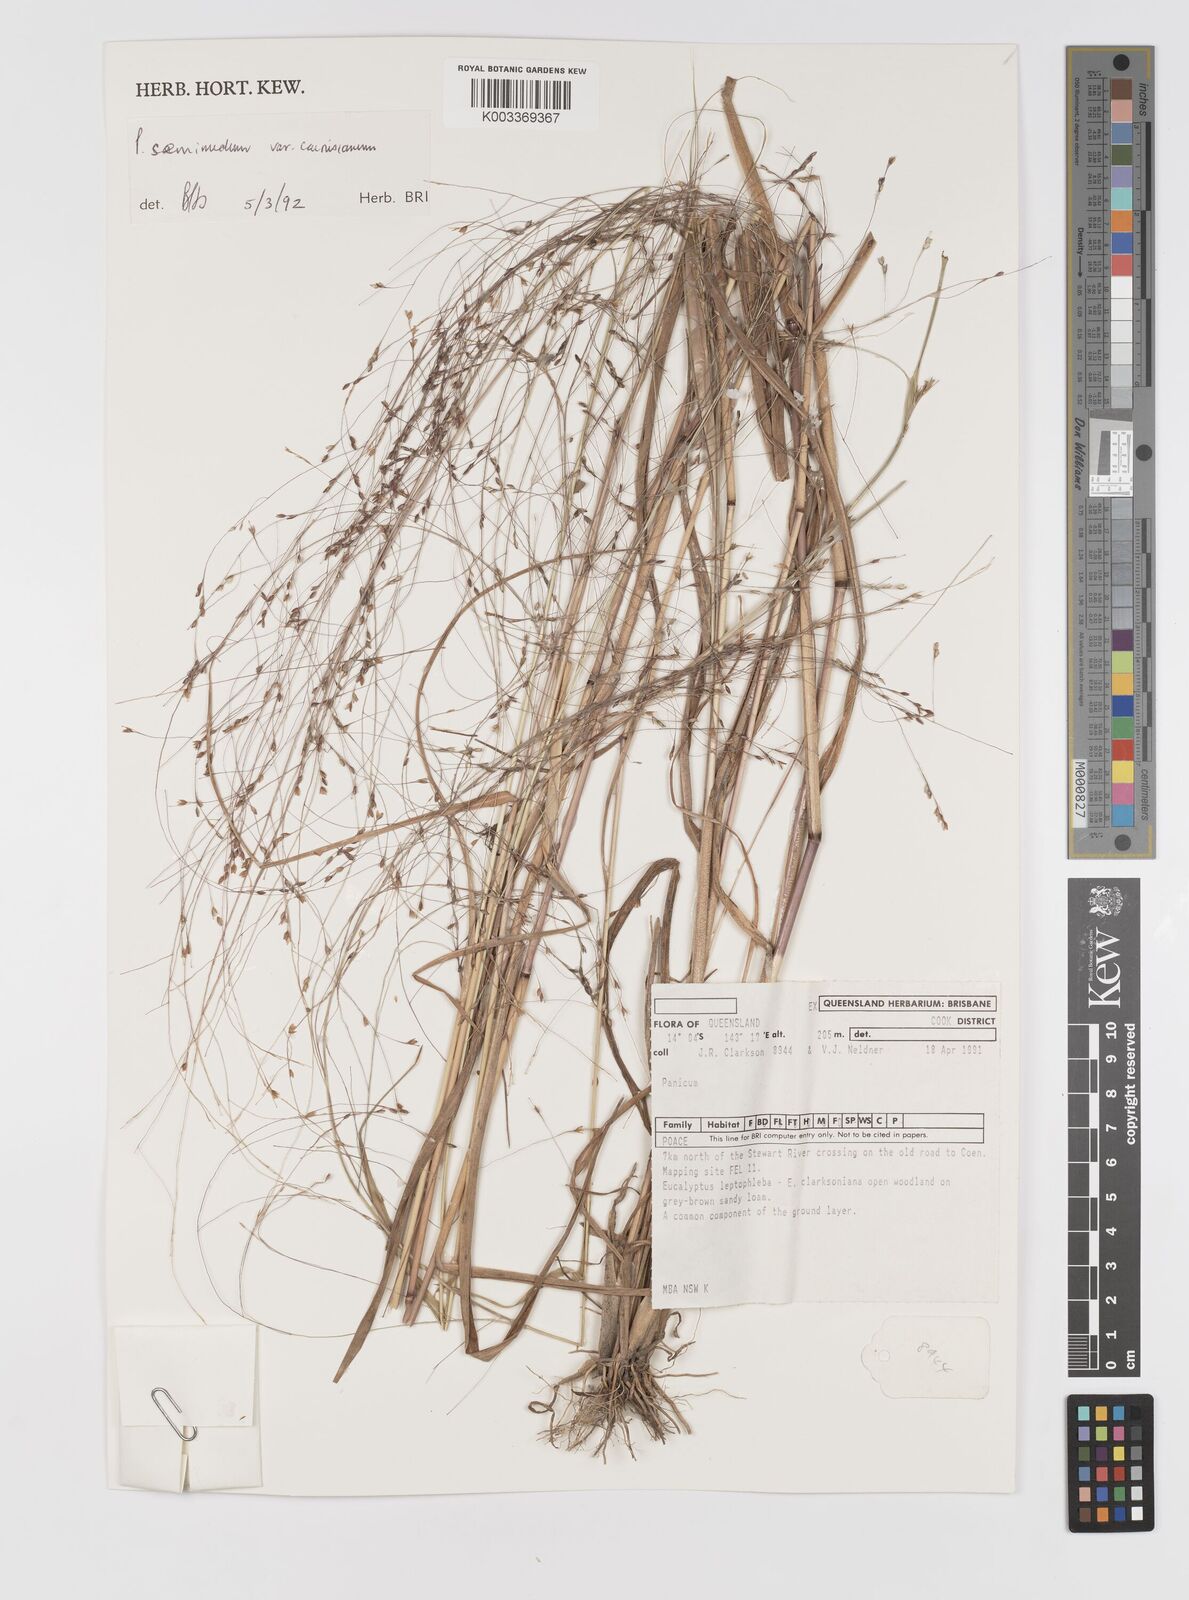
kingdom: Plantae
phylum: Tracheophyta
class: Liliopsida
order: Poales
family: Poaceae
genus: Panicum
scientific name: Panicum seminudum
